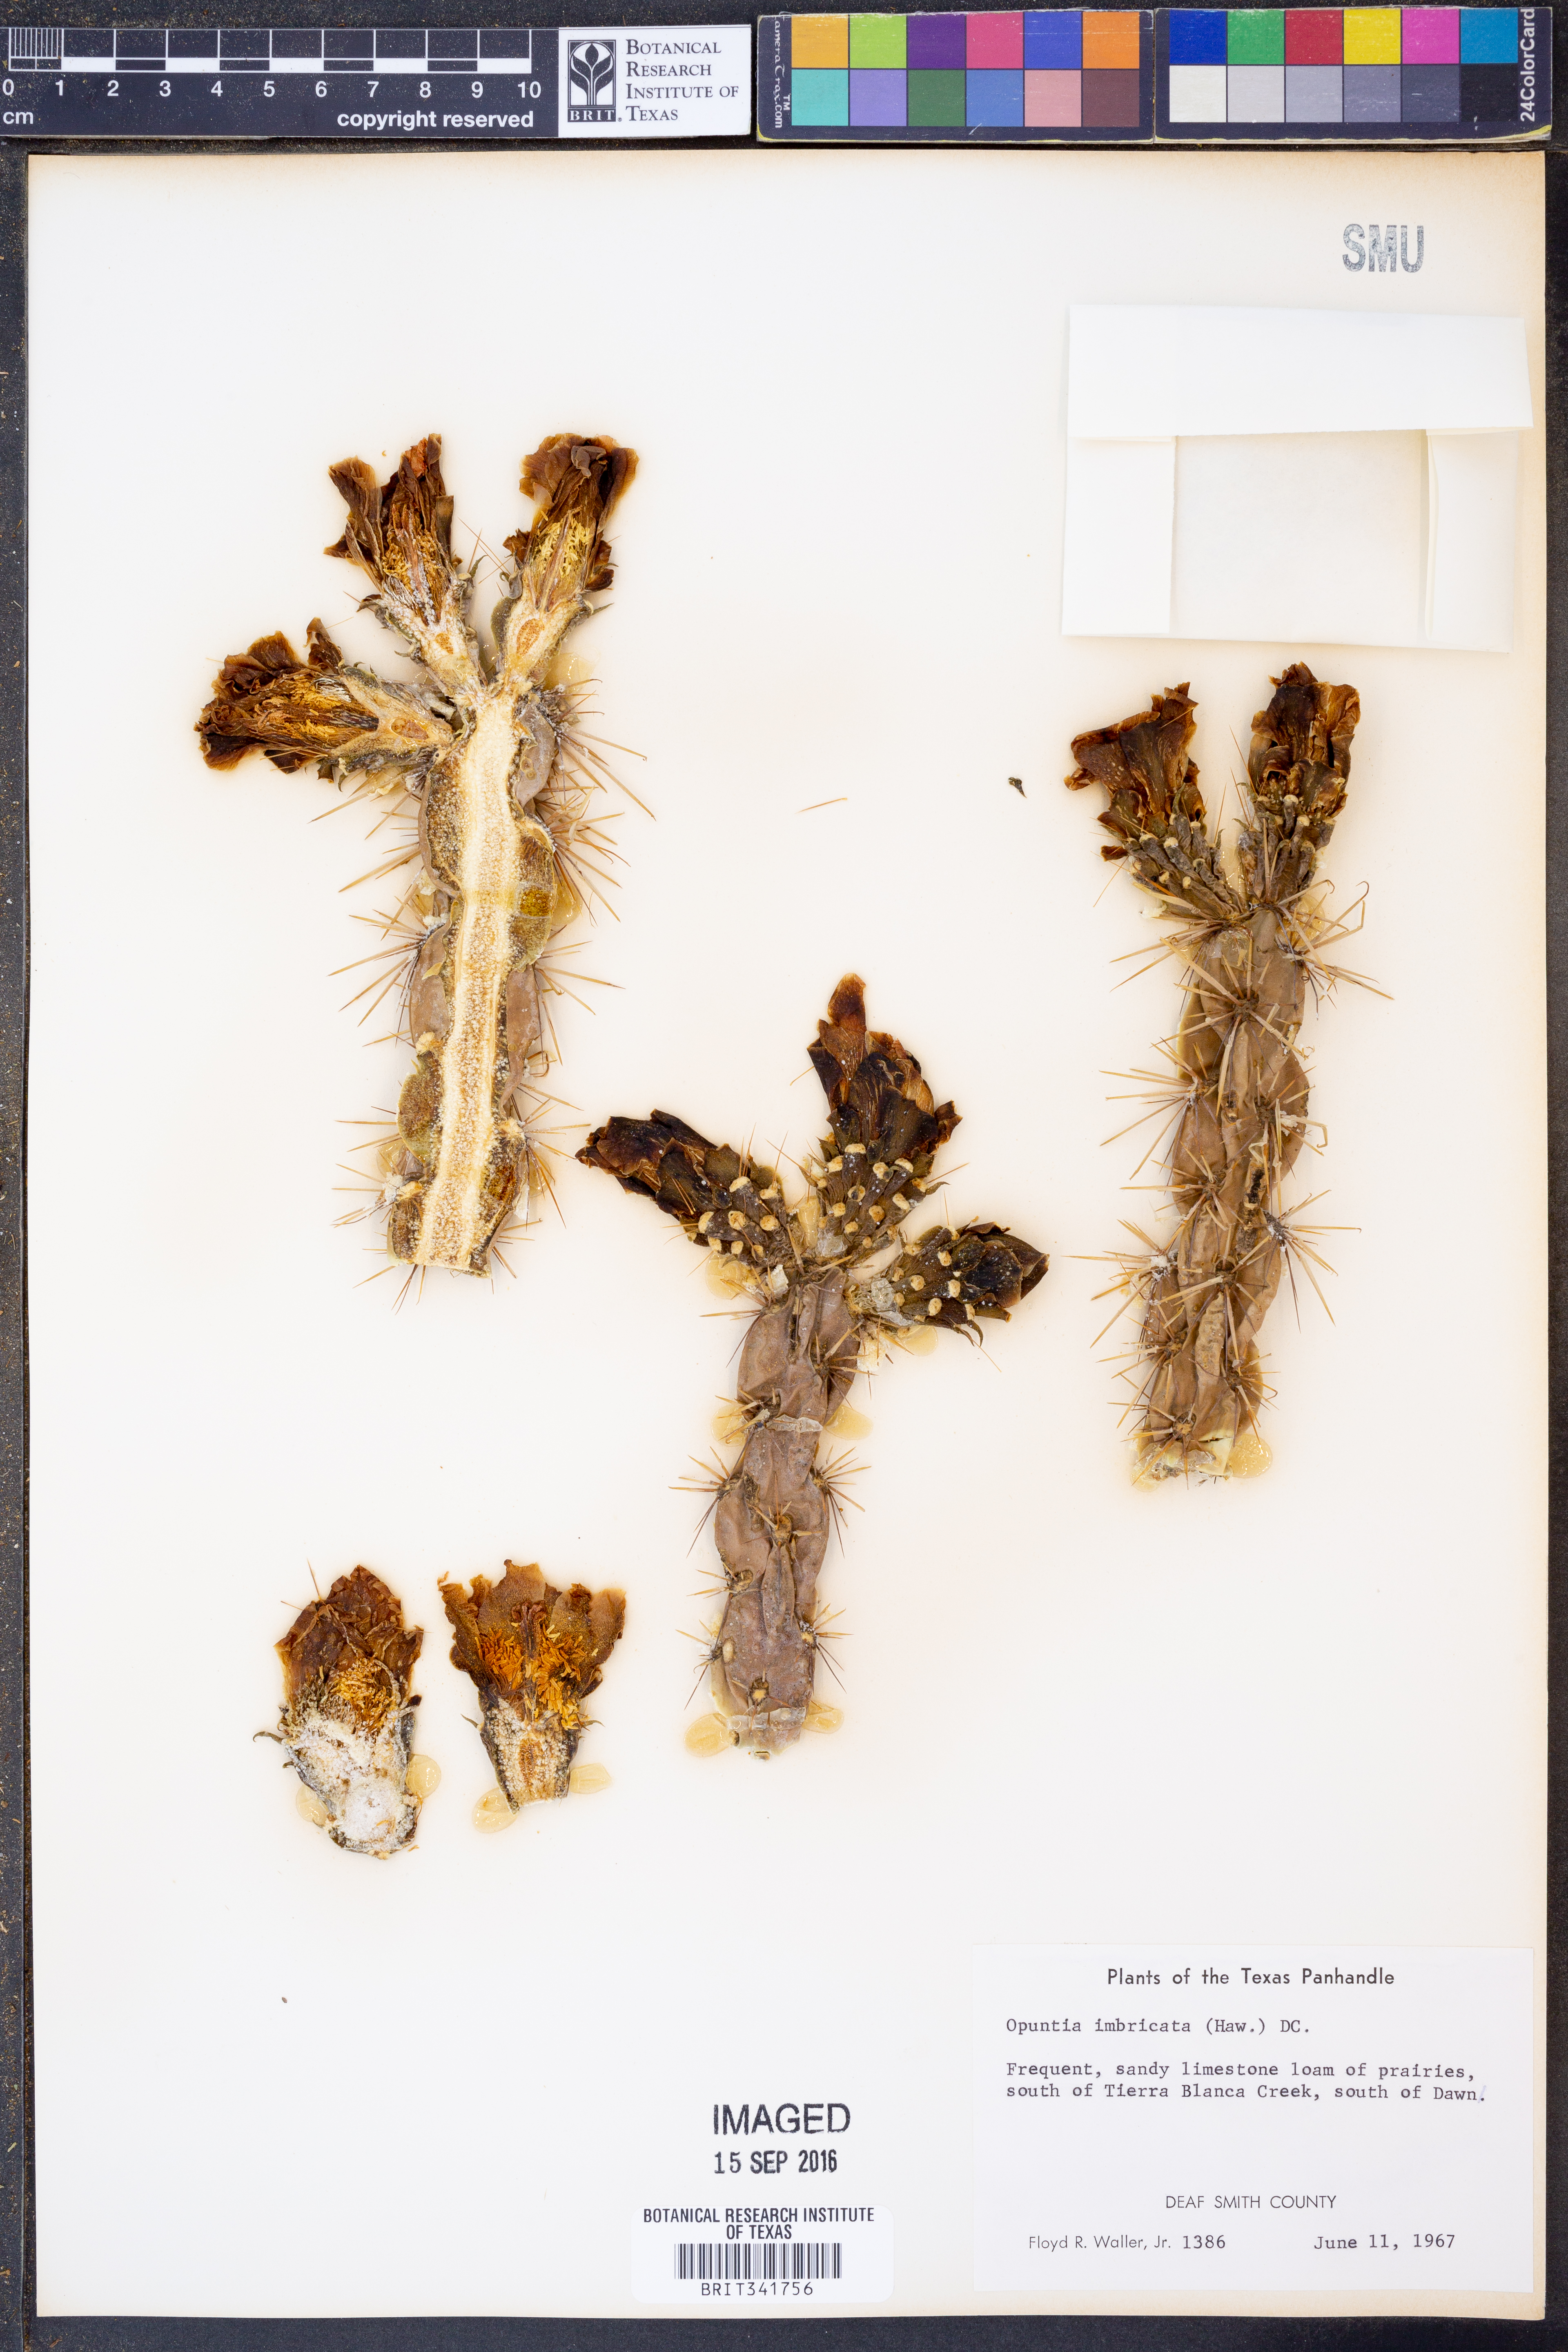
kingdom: Plantae
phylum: Tracheophyta
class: Magnoliopsida
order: Caryophyllales
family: Cactaceae
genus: Cylindropuntia
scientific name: Cylindropuntia imbricata
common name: Candelabrum cactus
